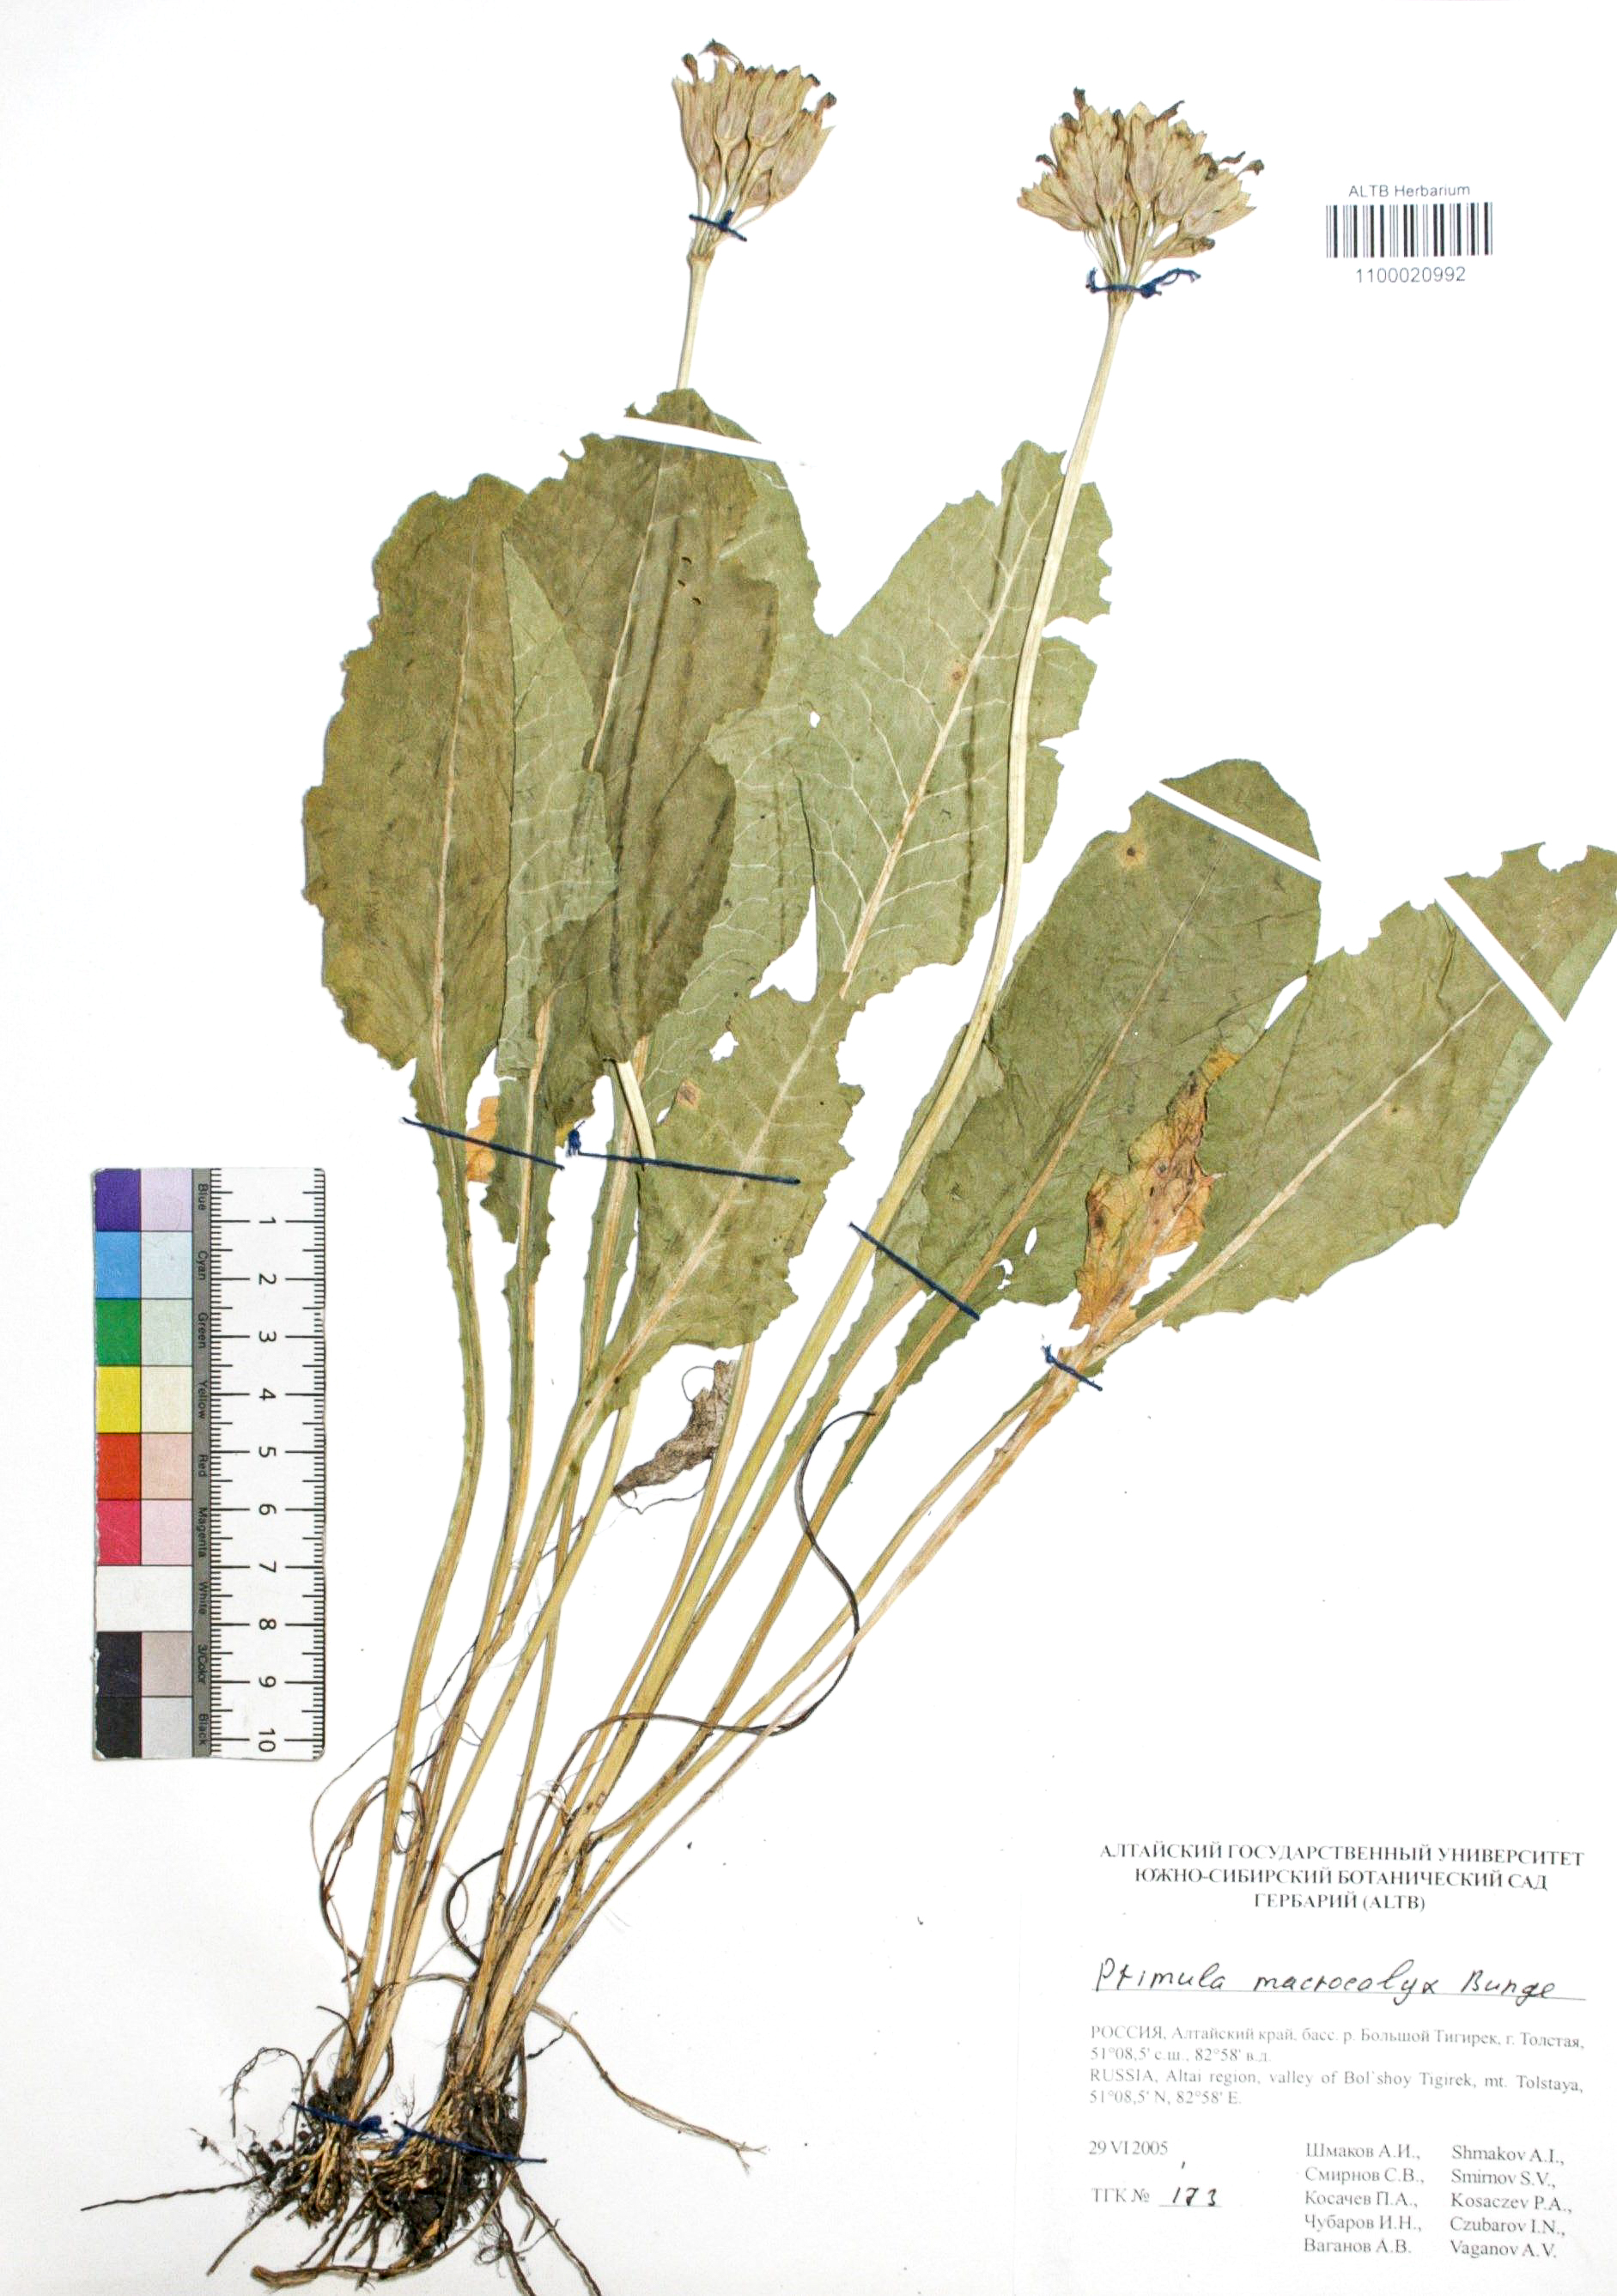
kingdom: Plantae
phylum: Tracheophyta
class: Magnoliopsida
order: Ericales
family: Primulaceae
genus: Primula
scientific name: Primula veris
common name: Cowslip
